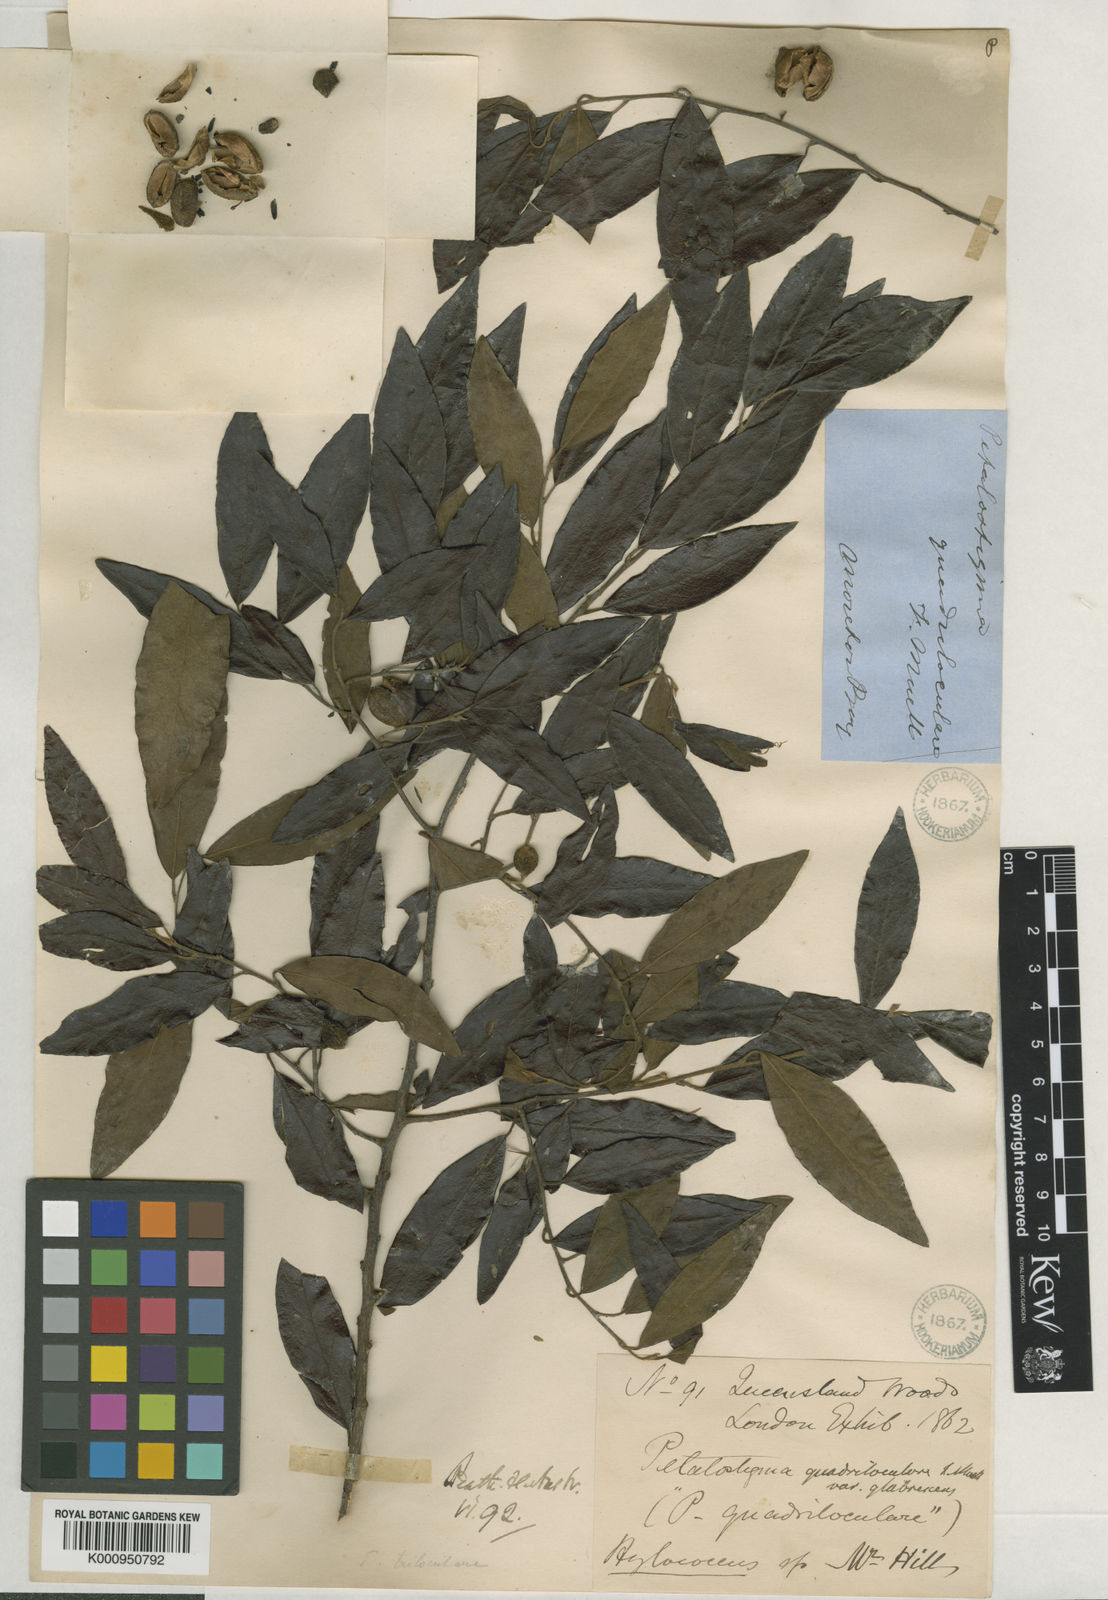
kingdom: Plantae
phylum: Tracheophyta
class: Magnoliopsida
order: Malpighiales
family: Picrodendraceae
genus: Petalostigma
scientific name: Petalostigma
